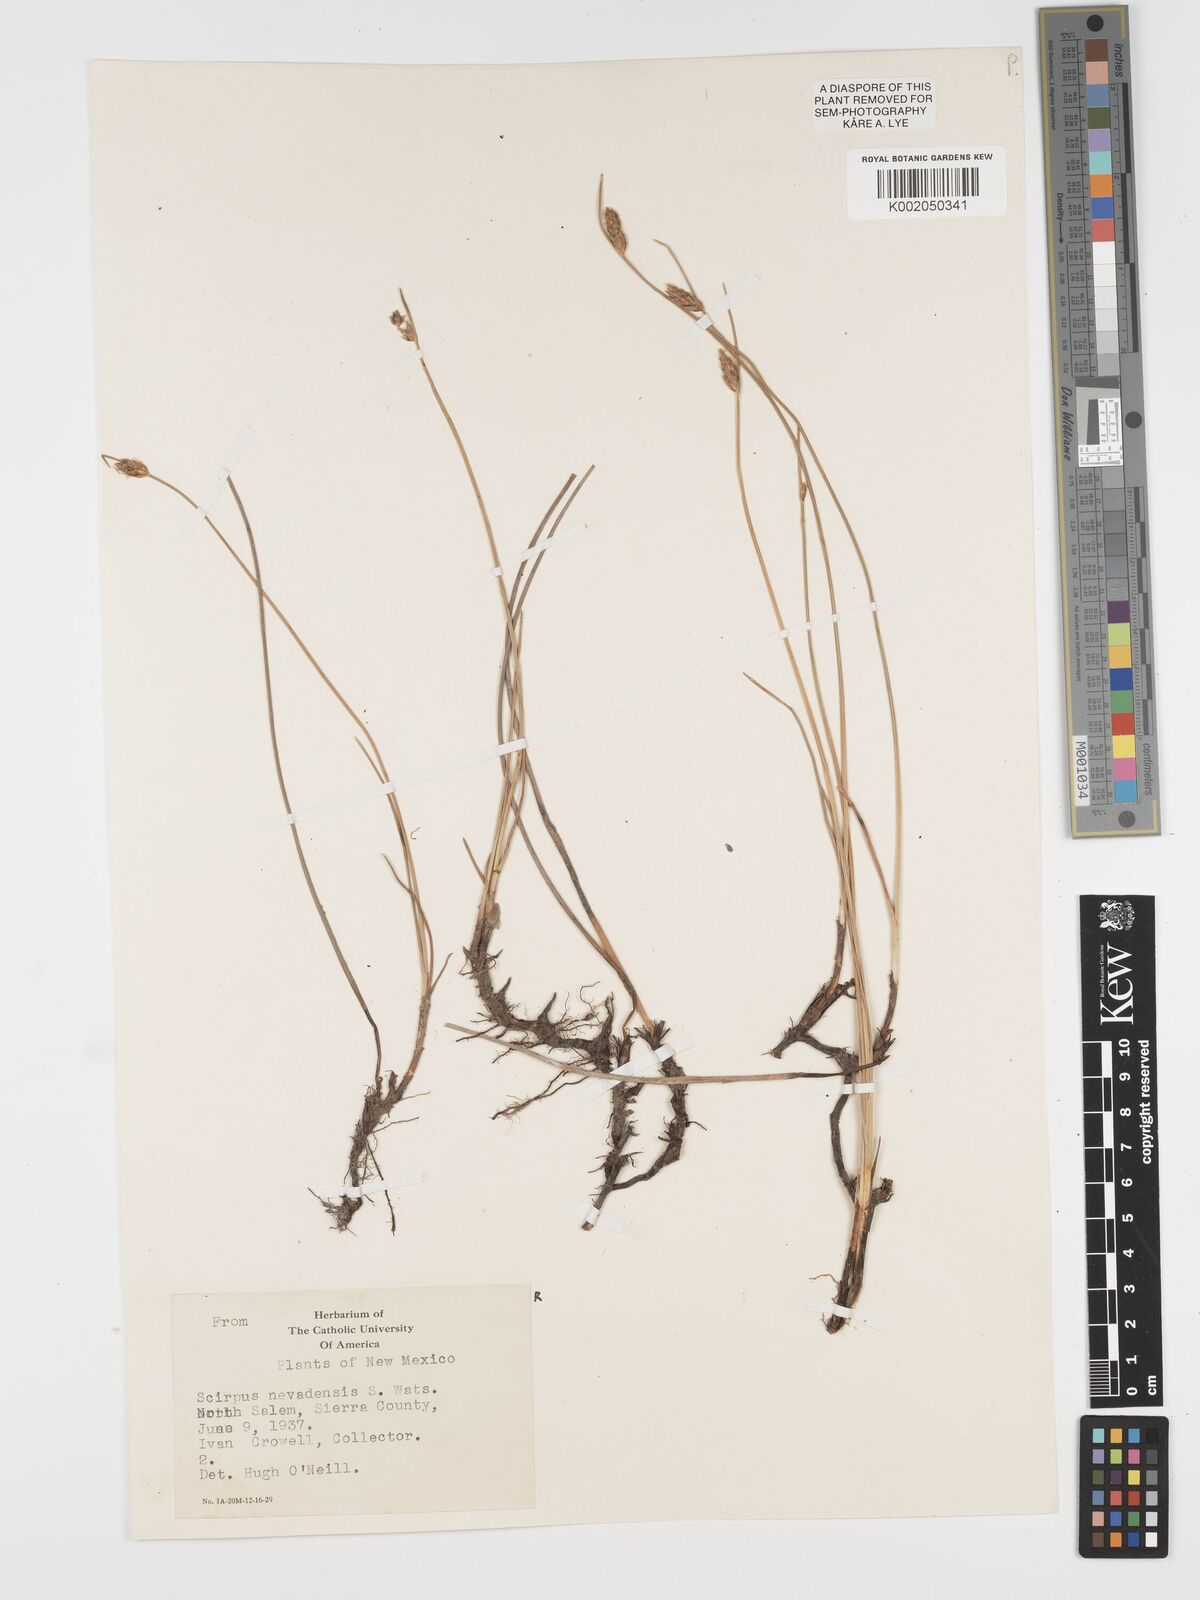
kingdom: Plantae
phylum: Tracheophyta
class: Liliopsida
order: Poales
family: Cyperaceae
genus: Amphiscirpus
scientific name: Amphiscirpus nevadensis
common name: Nevada bulrush
